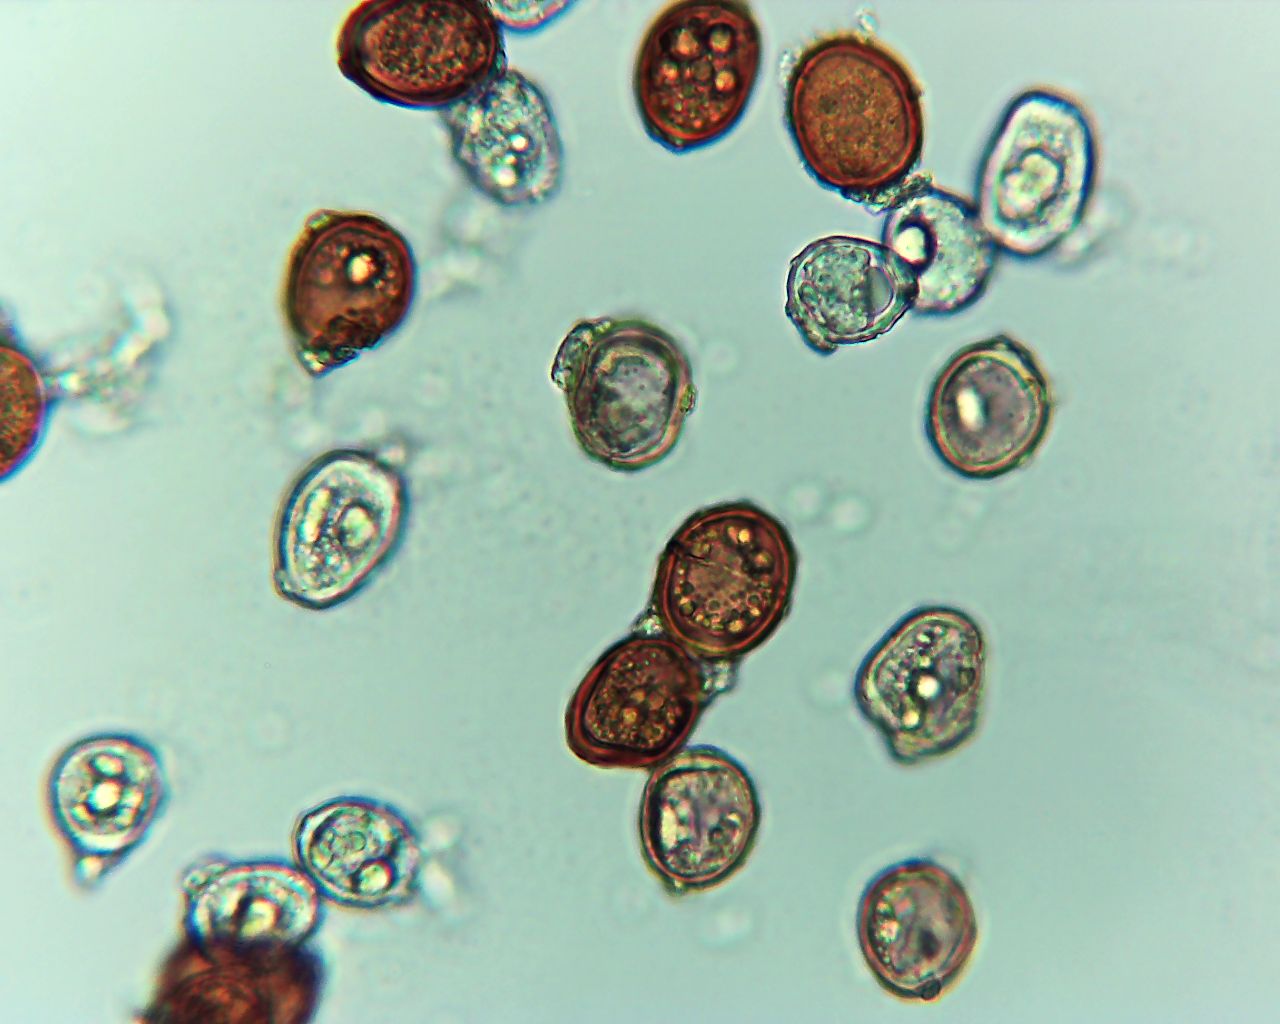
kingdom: Fungi
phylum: Basidiomycota
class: Pucciniomycetes
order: Pucciniales
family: Pucciniaceae
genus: Uromyces
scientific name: Uromyces acetosae
